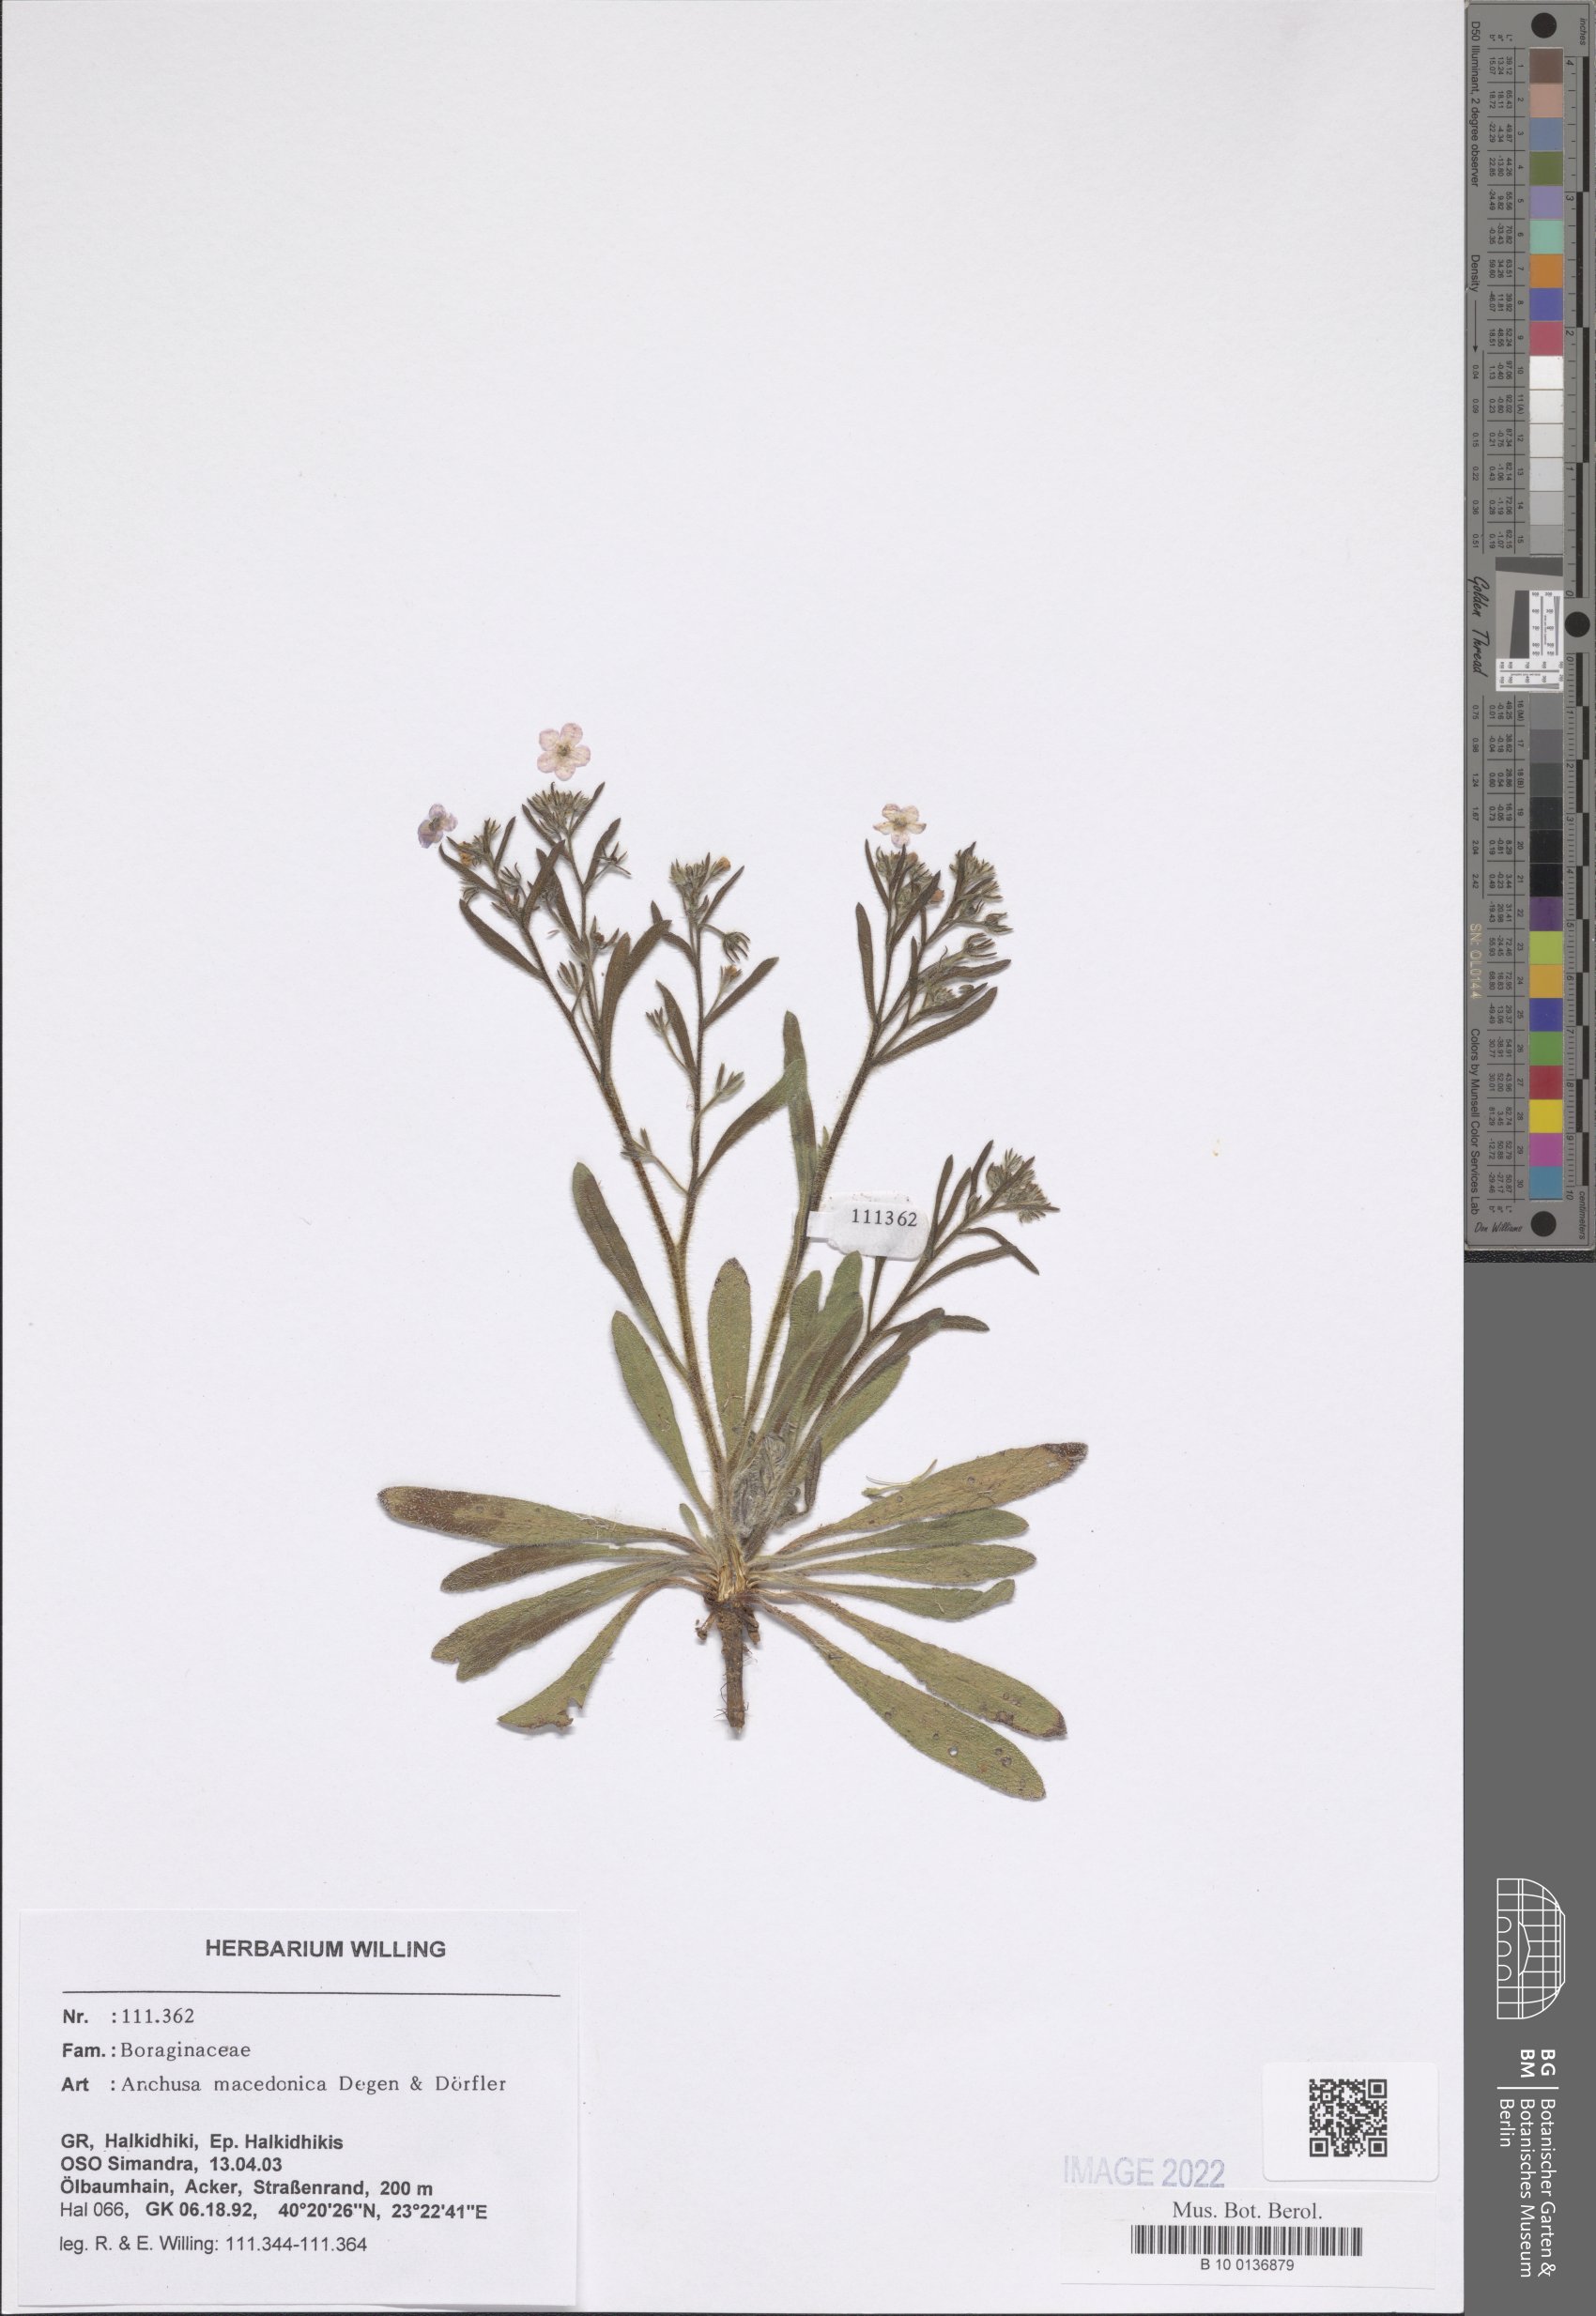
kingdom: Plantae
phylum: Tracheophyta
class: Magnoliopsida
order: Boraginales
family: Boraginaceae
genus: Anchusa
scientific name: Anchusa officinalis
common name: Alkanet
